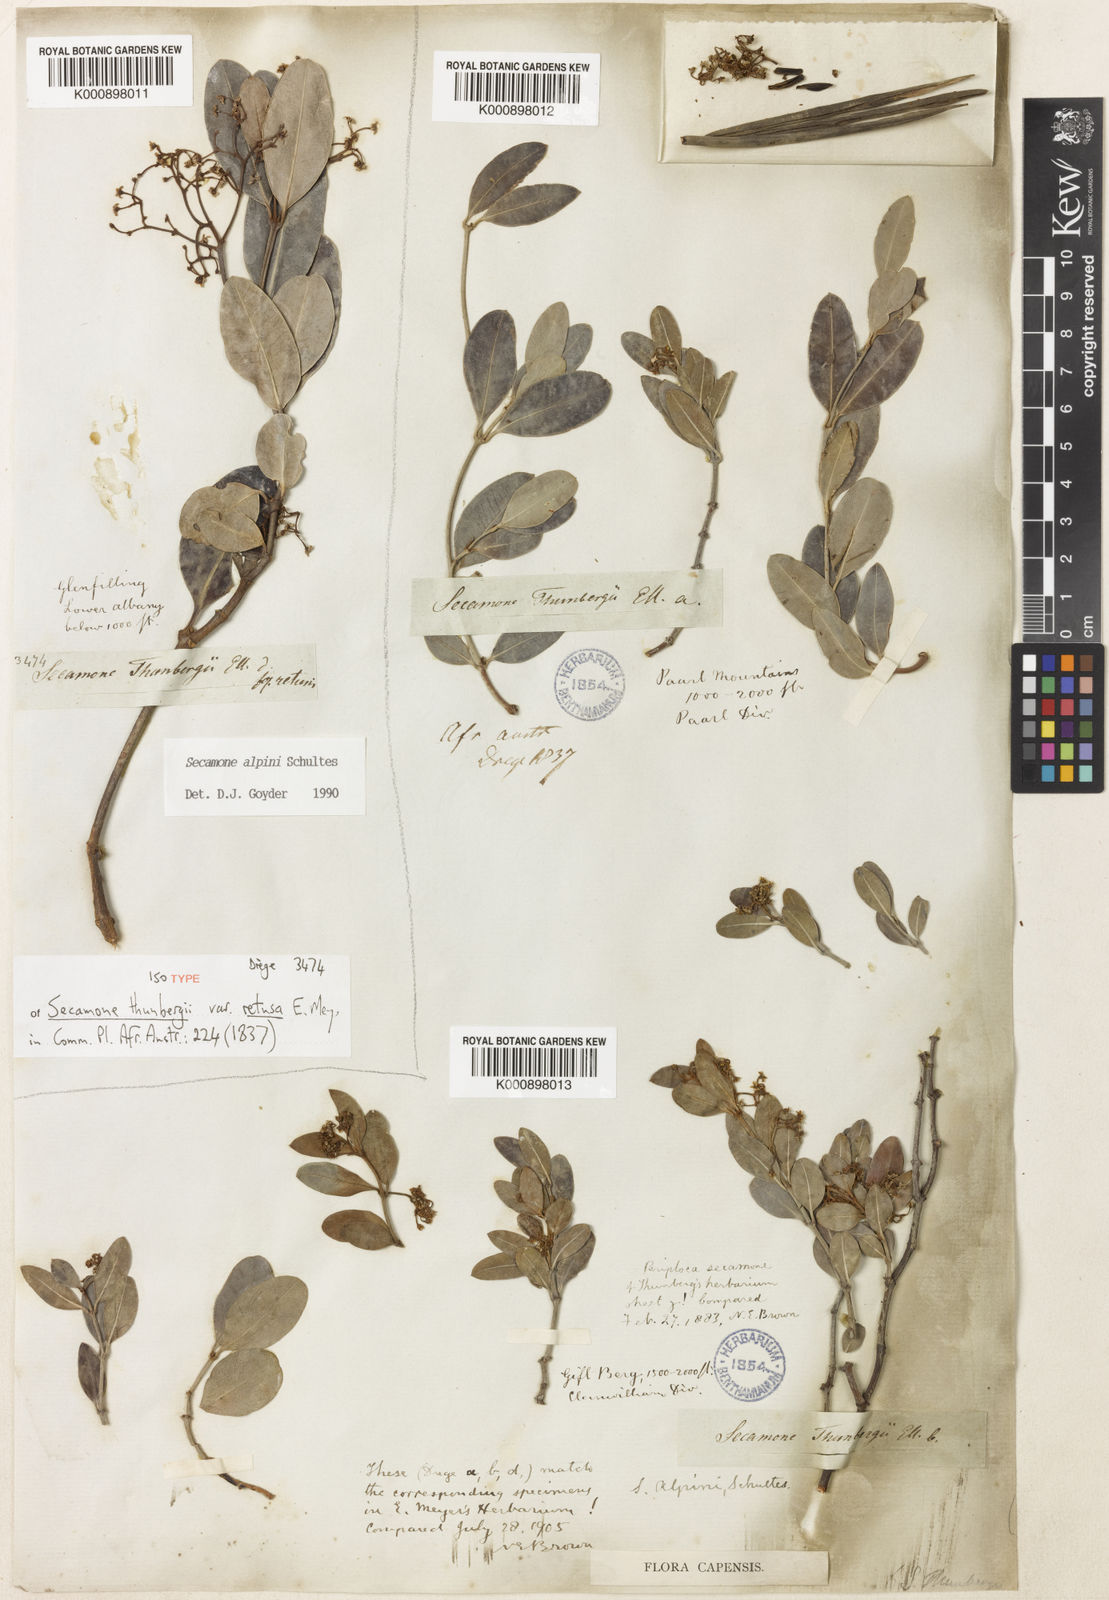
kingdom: Plantae
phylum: Tracheophyta
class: Magnoliopsida
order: Gentianales
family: Apocynaceae
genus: Secamone
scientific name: Secamone alpini
